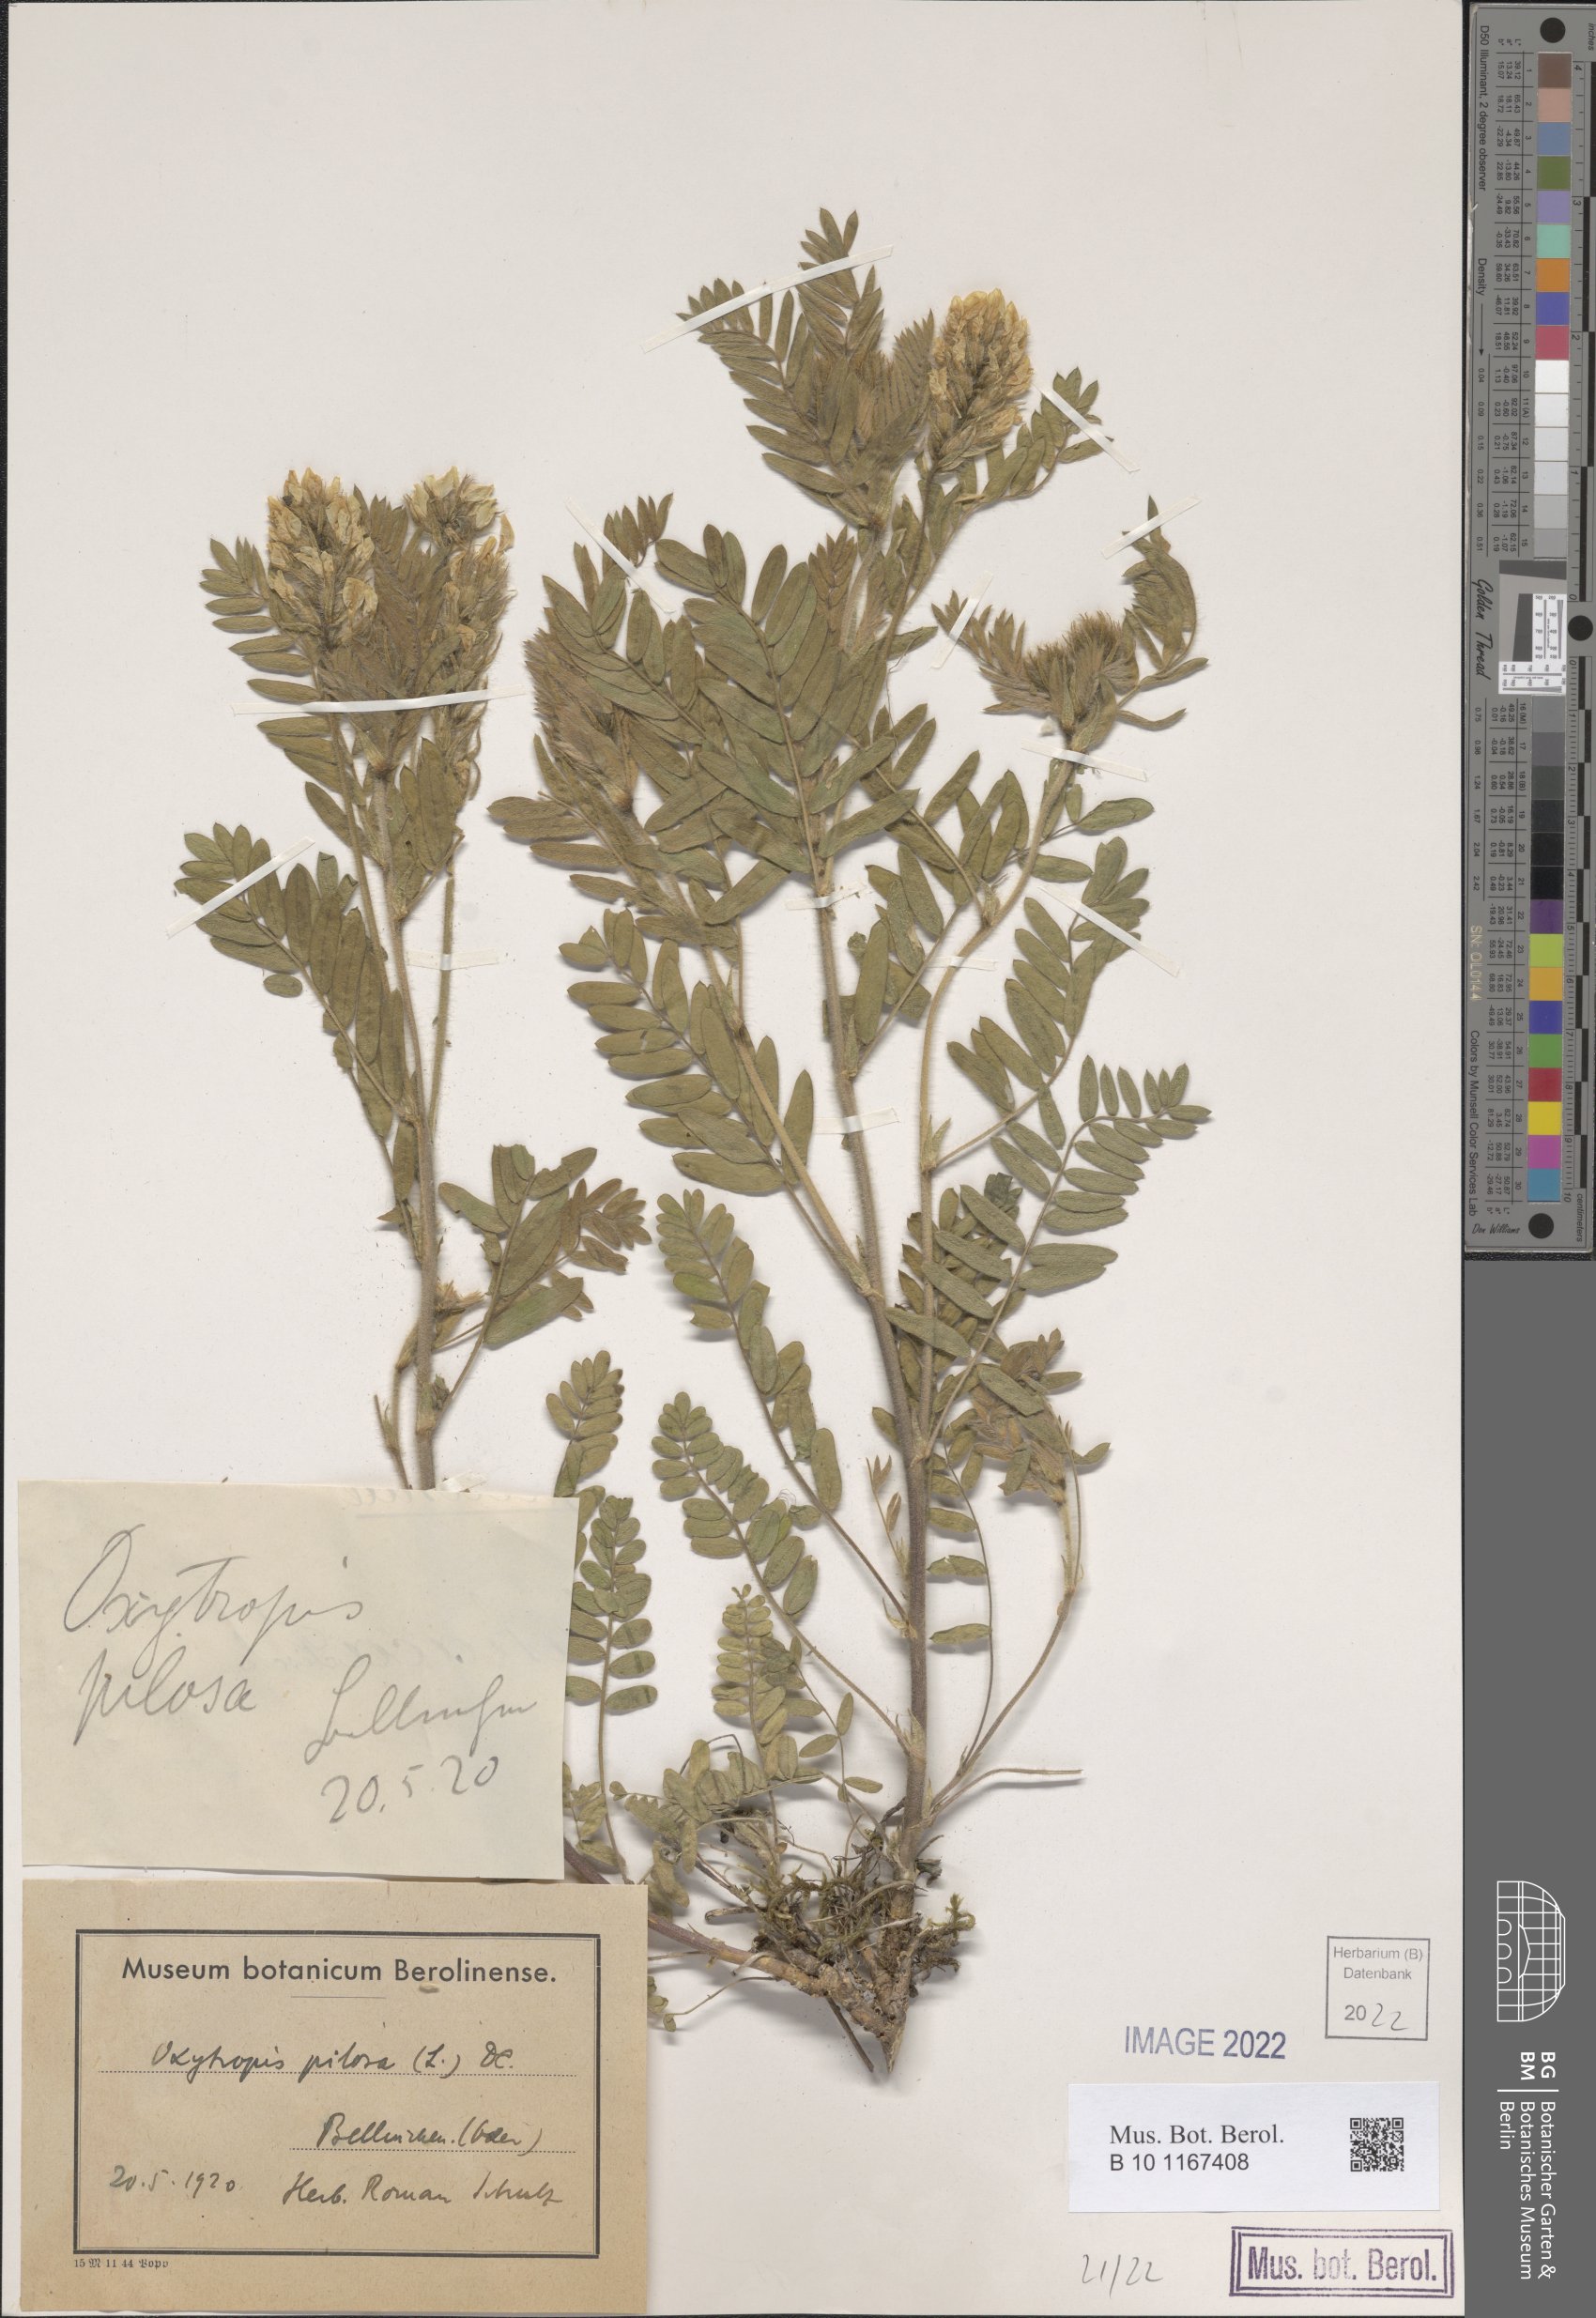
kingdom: Plantae
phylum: Tracheophyta
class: Magnoliopsida
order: Fabales
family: Fabaceae
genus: Oxytropis
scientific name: Oxytropis pilosa
